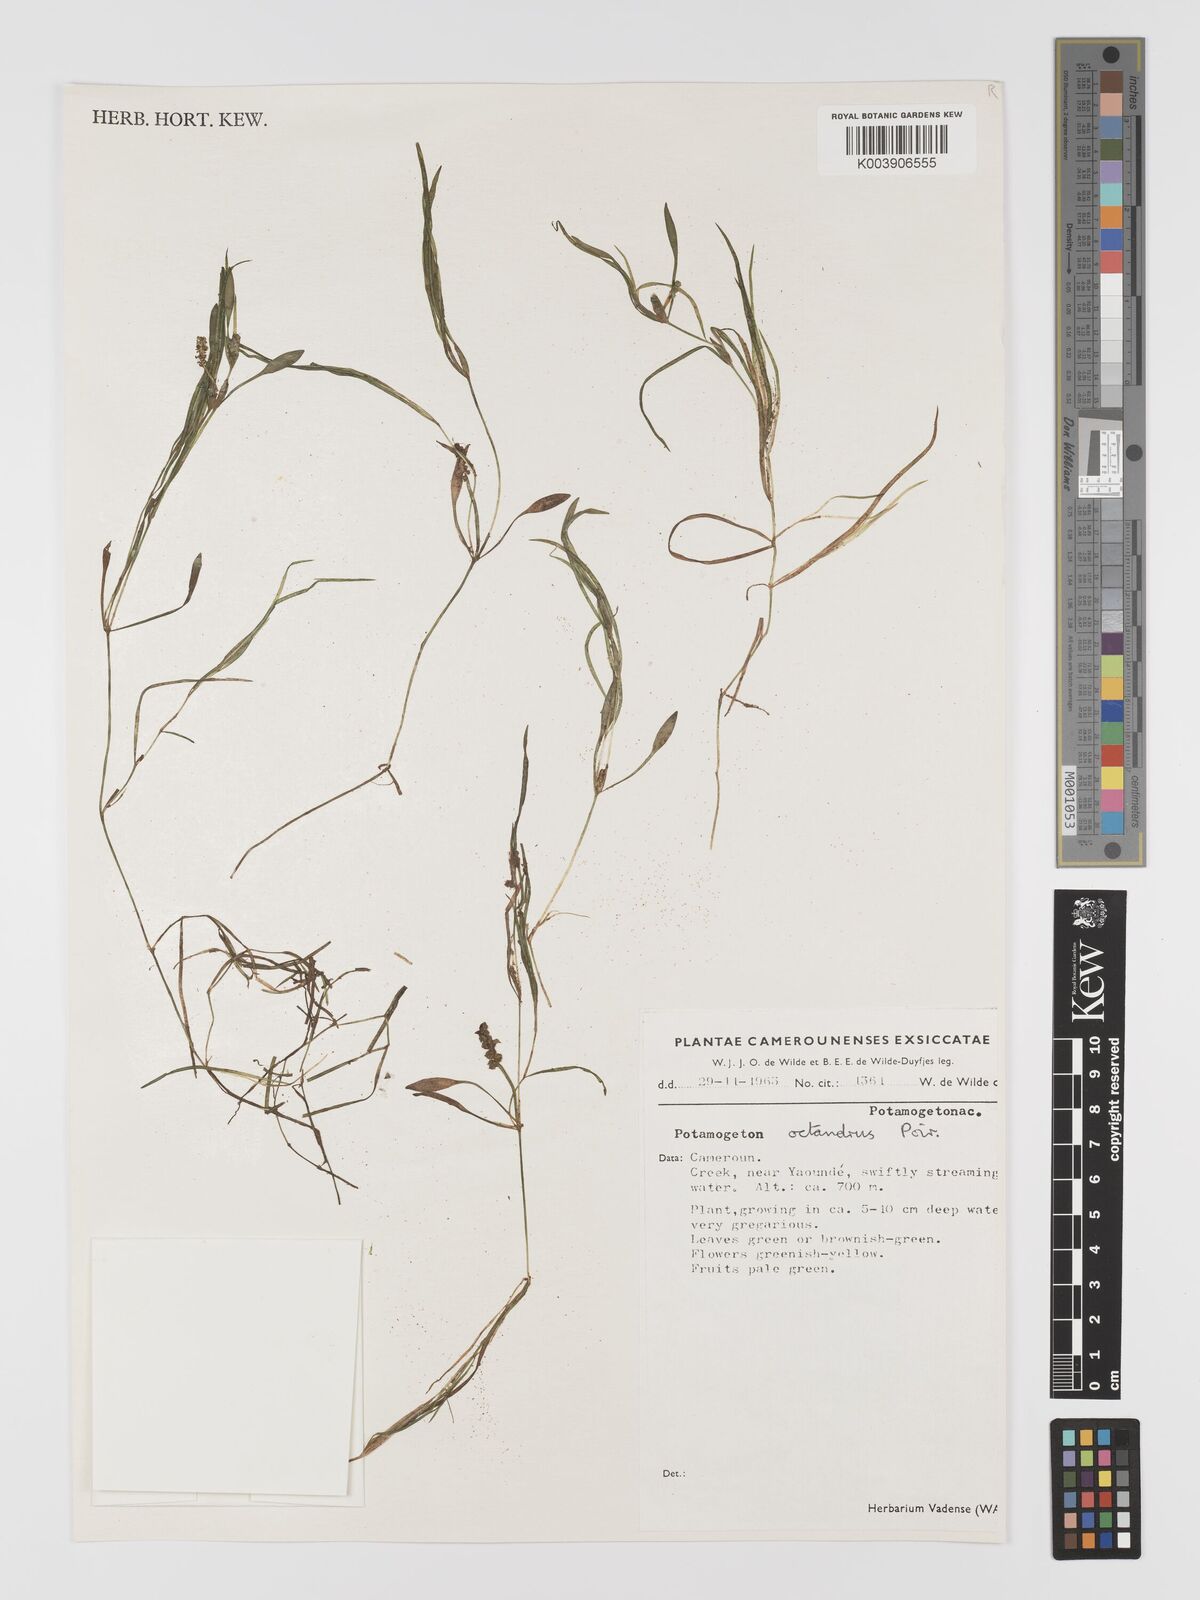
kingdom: Plantae
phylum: Tracheophyta
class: Liliopsida
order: Alismatales
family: Potamogetonaceae
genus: Potamogeton
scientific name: Potamogeton octandrus
